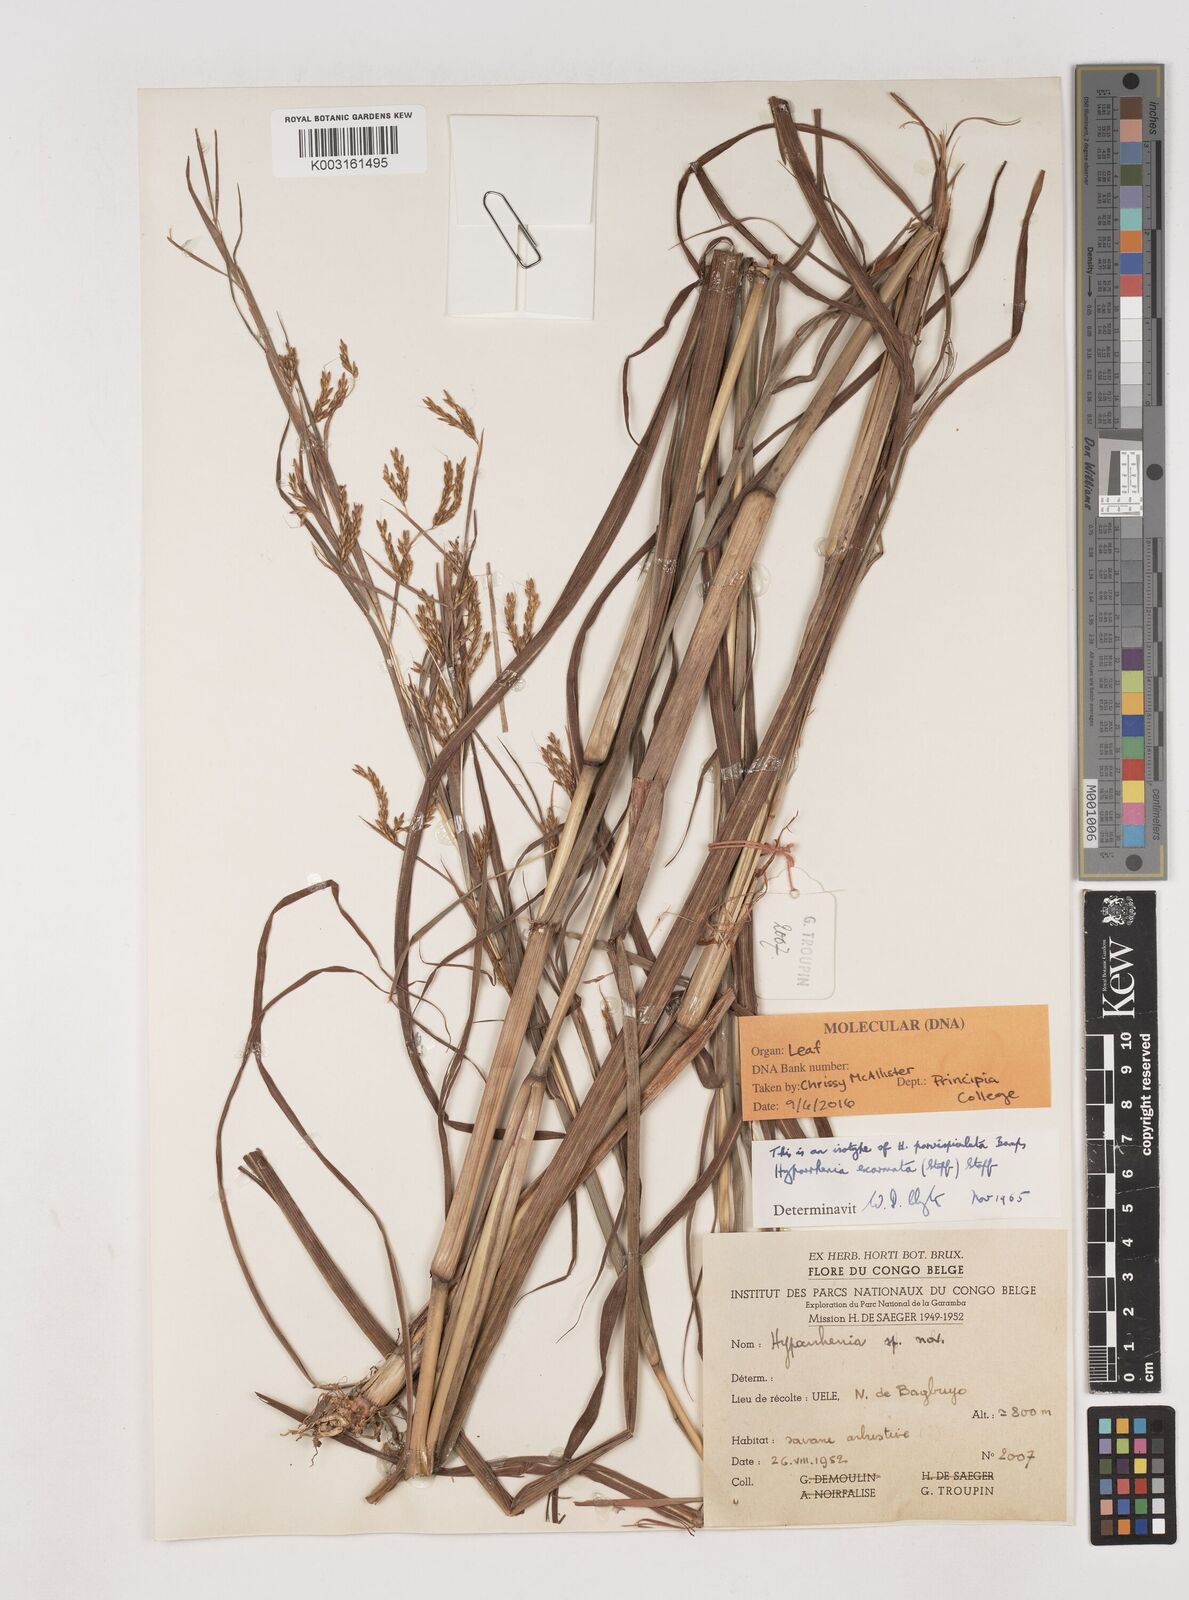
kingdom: Plantae
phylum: Tracheophyta
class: Liliopsida
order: Poales
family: Poaceae
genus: Hyparrhenia
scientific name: Hyparrhenia exarmata
